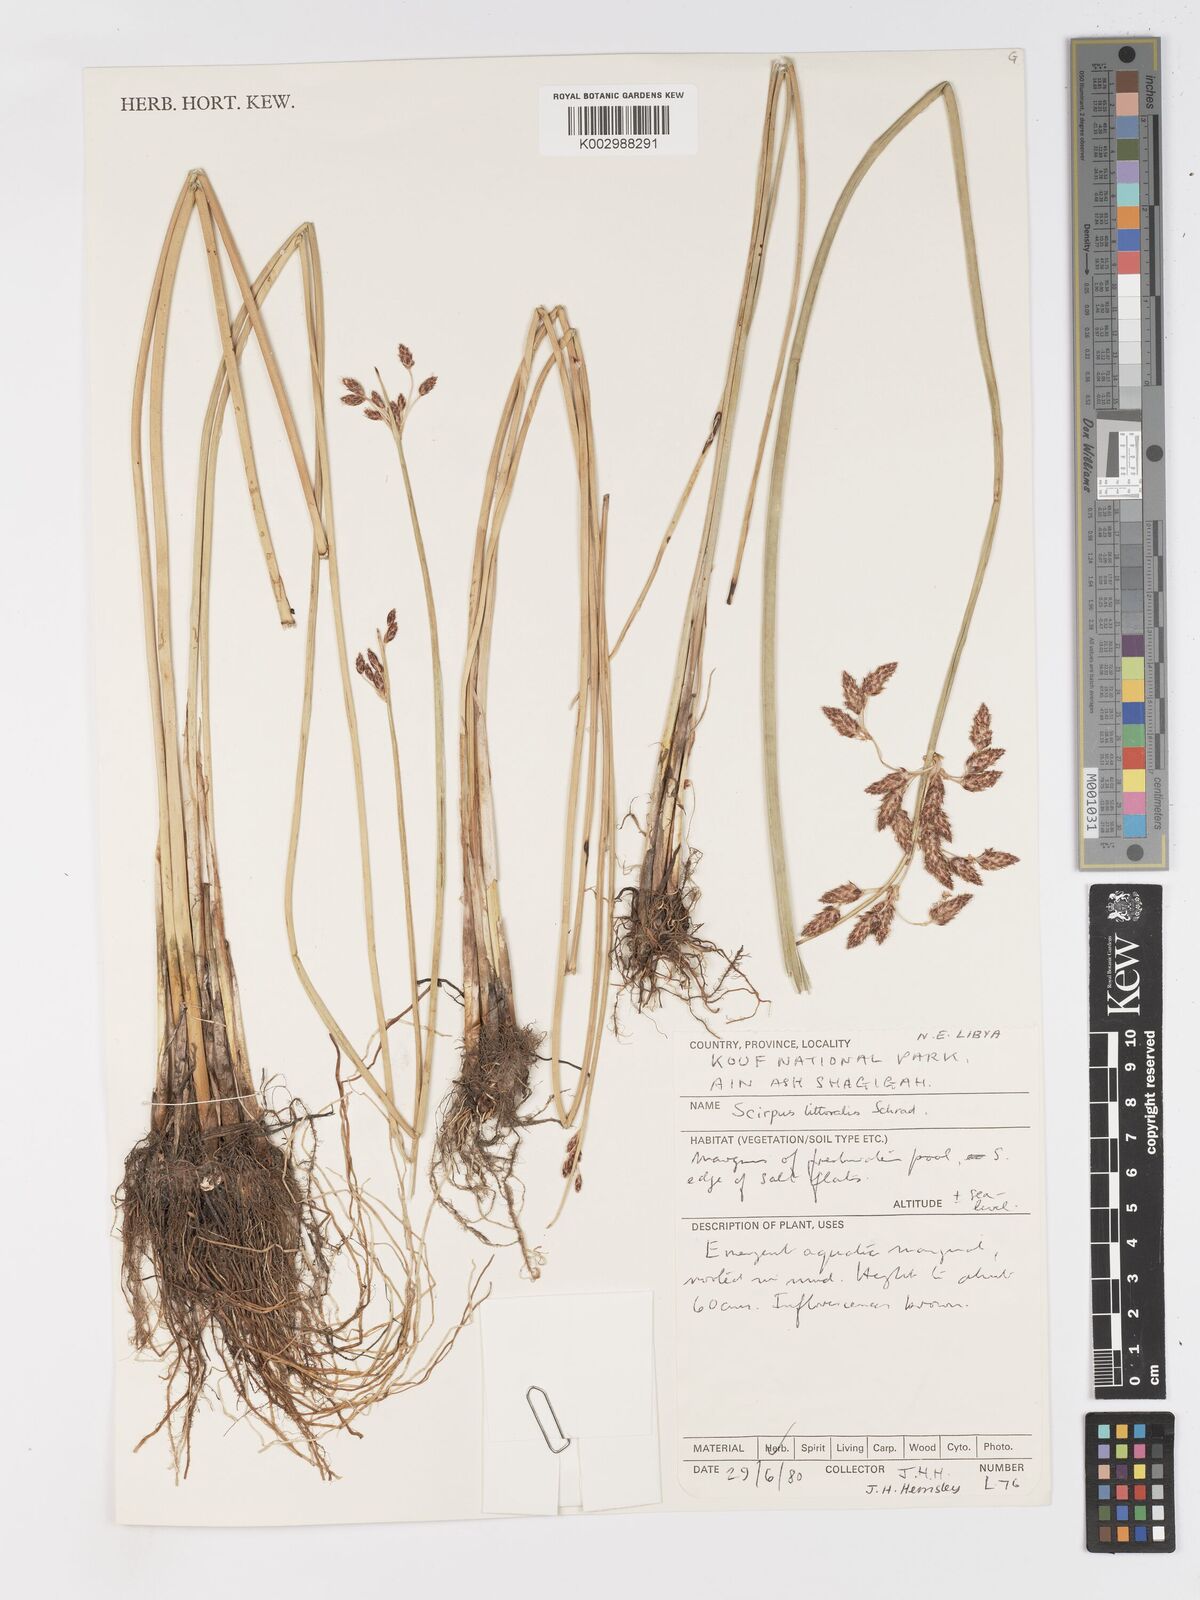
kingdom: Plantae
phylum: Tracheophyta
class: Liliopsida
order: Poales
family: Cyperaceae
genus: Schoenoplectus
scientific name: Schoenoplectus litoralis
